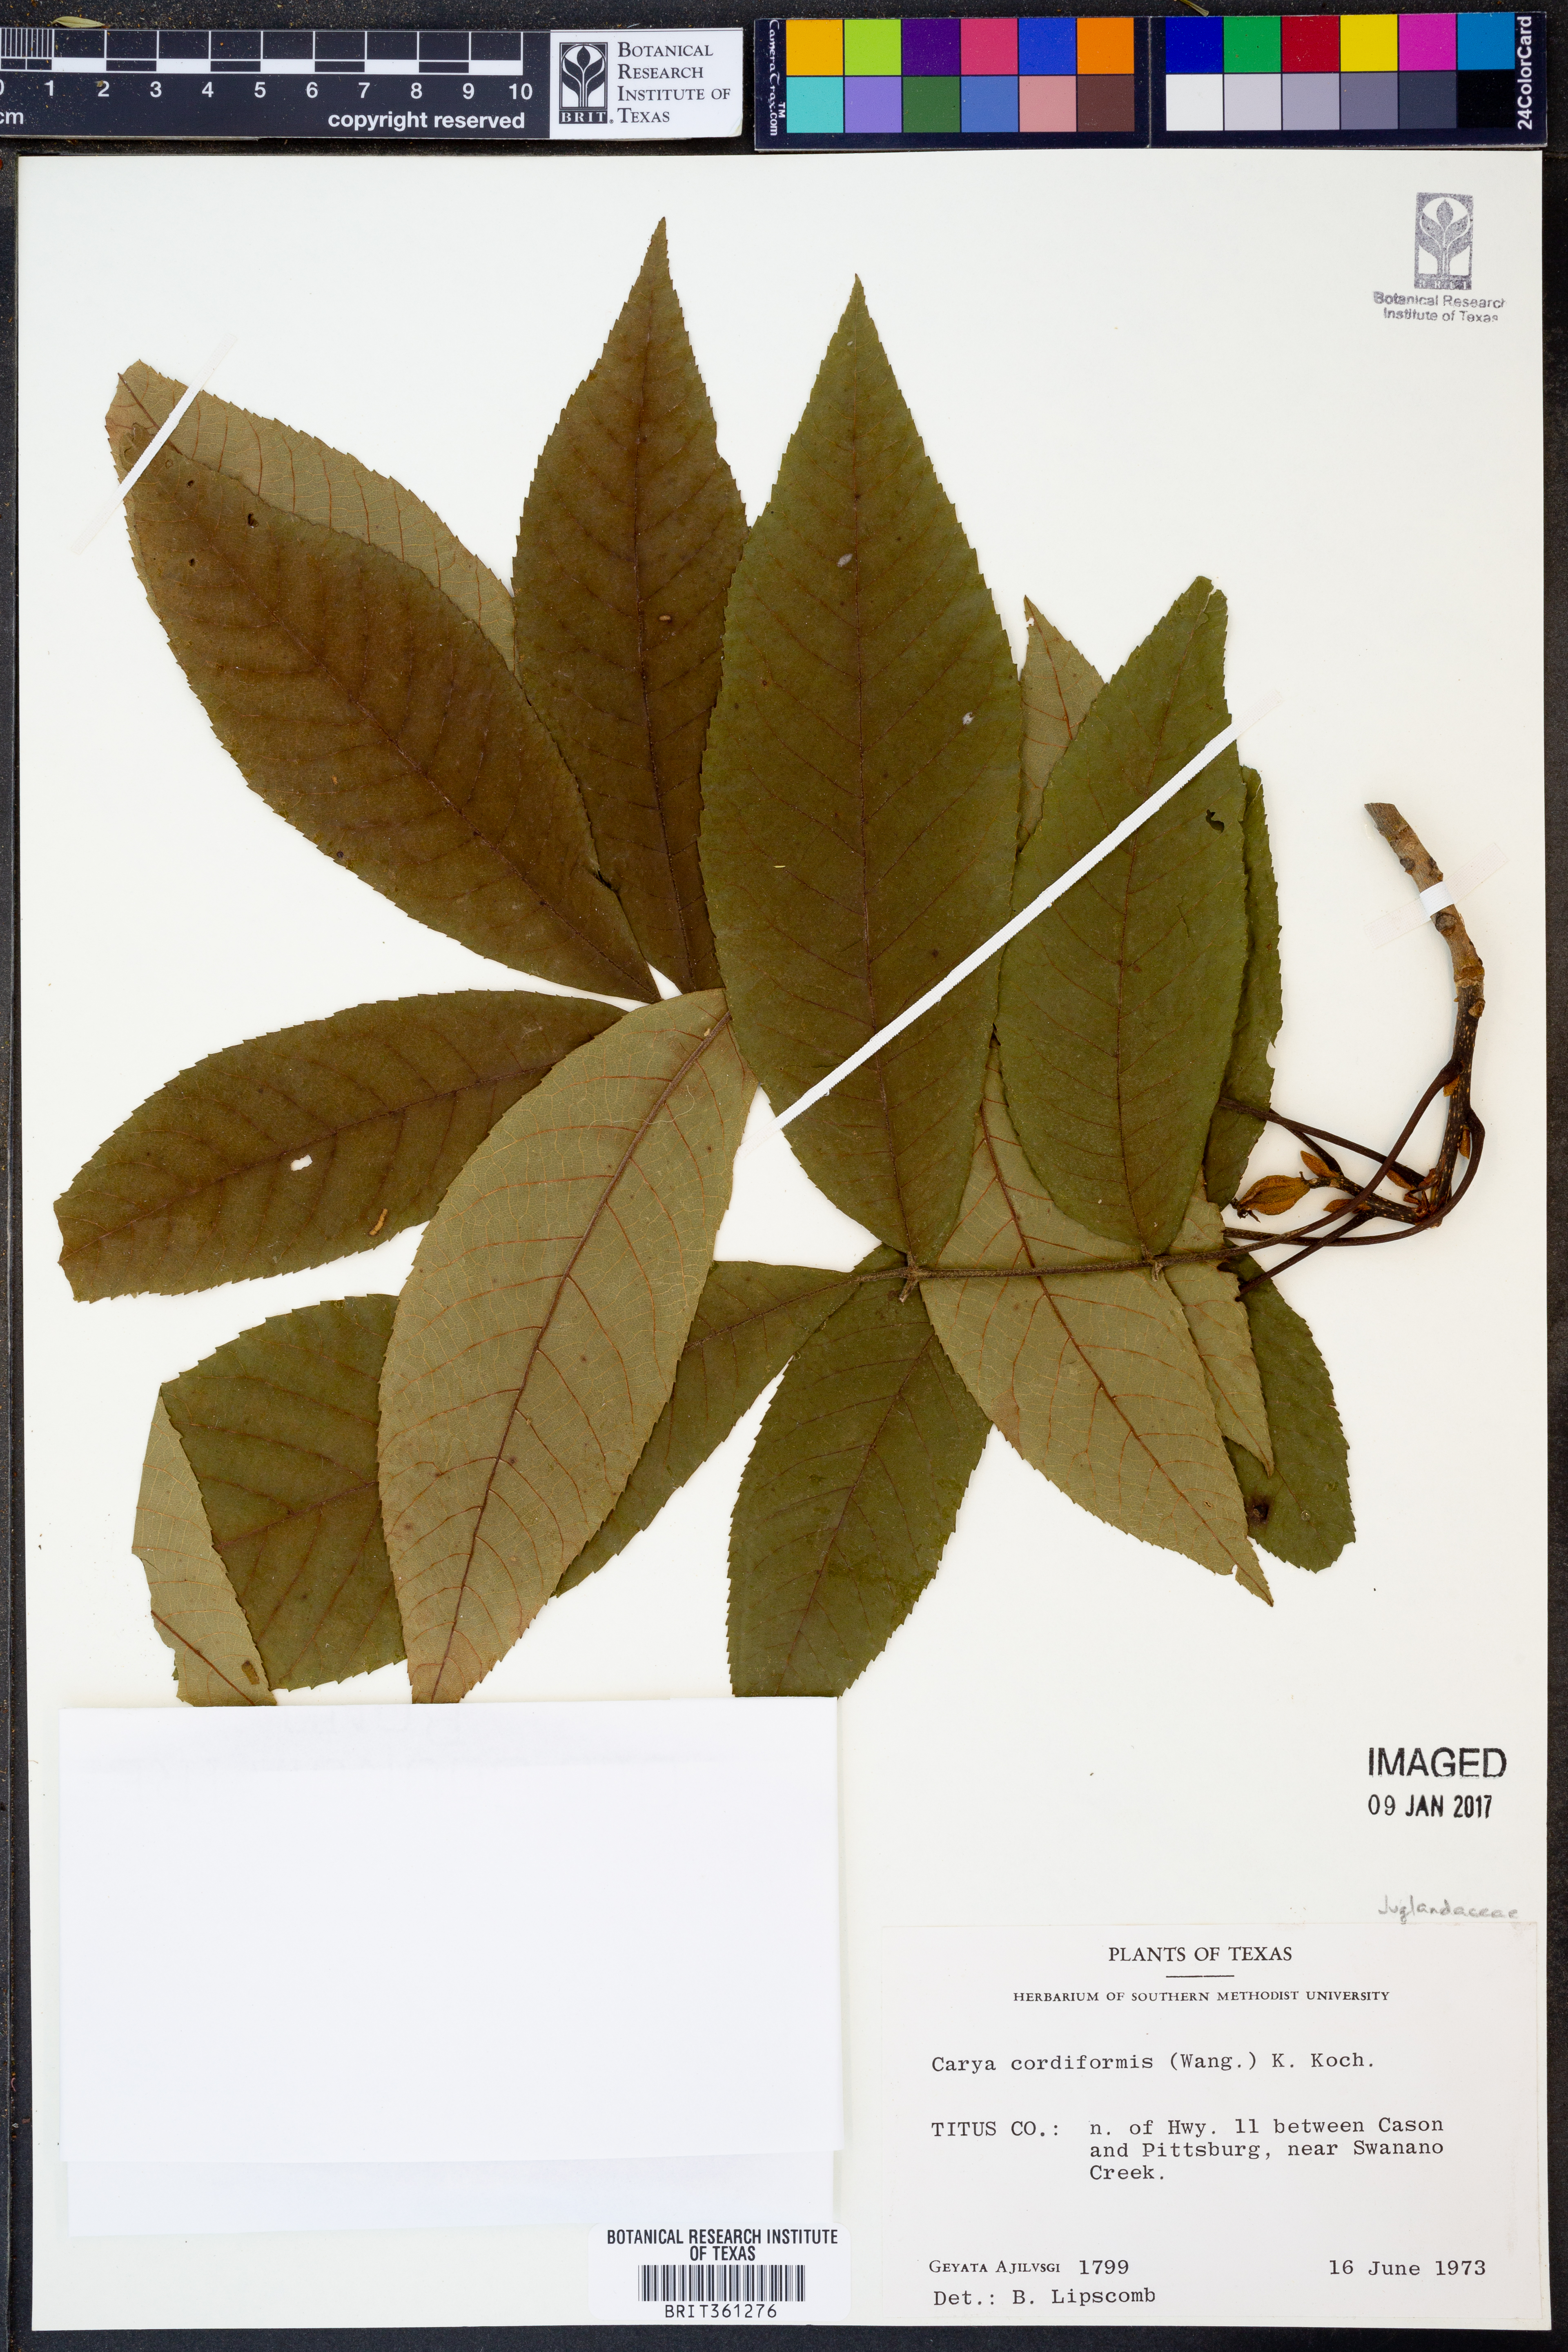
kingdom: Plantae
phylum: Tracheophyta
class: Magnoliopsida
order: Fagales
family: Juglandaceae
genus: Carya
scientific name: Carya cordiformis
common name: Bitternut hickory
